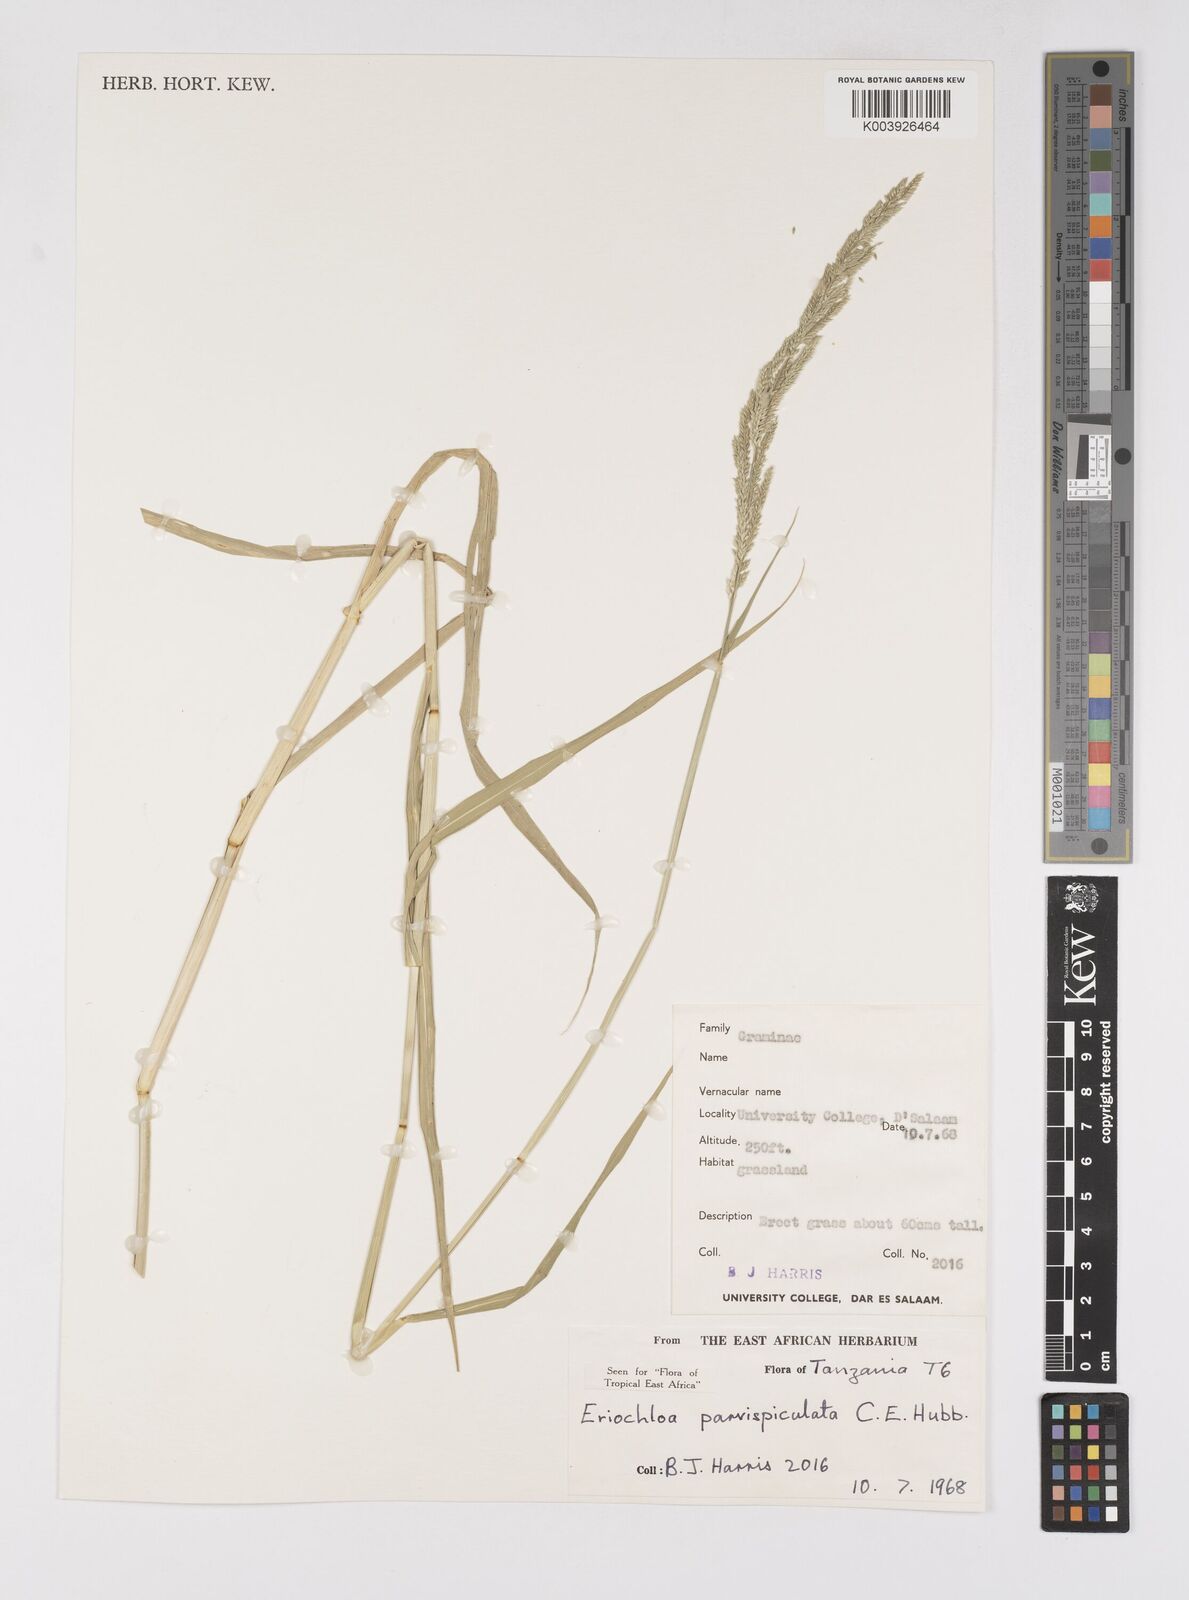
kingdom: Plantae
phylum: Tracheophyta
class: Liliopsida
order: Poales
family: Poaceae
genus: Eriochloa
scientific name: Eriochloa parvispiculata
